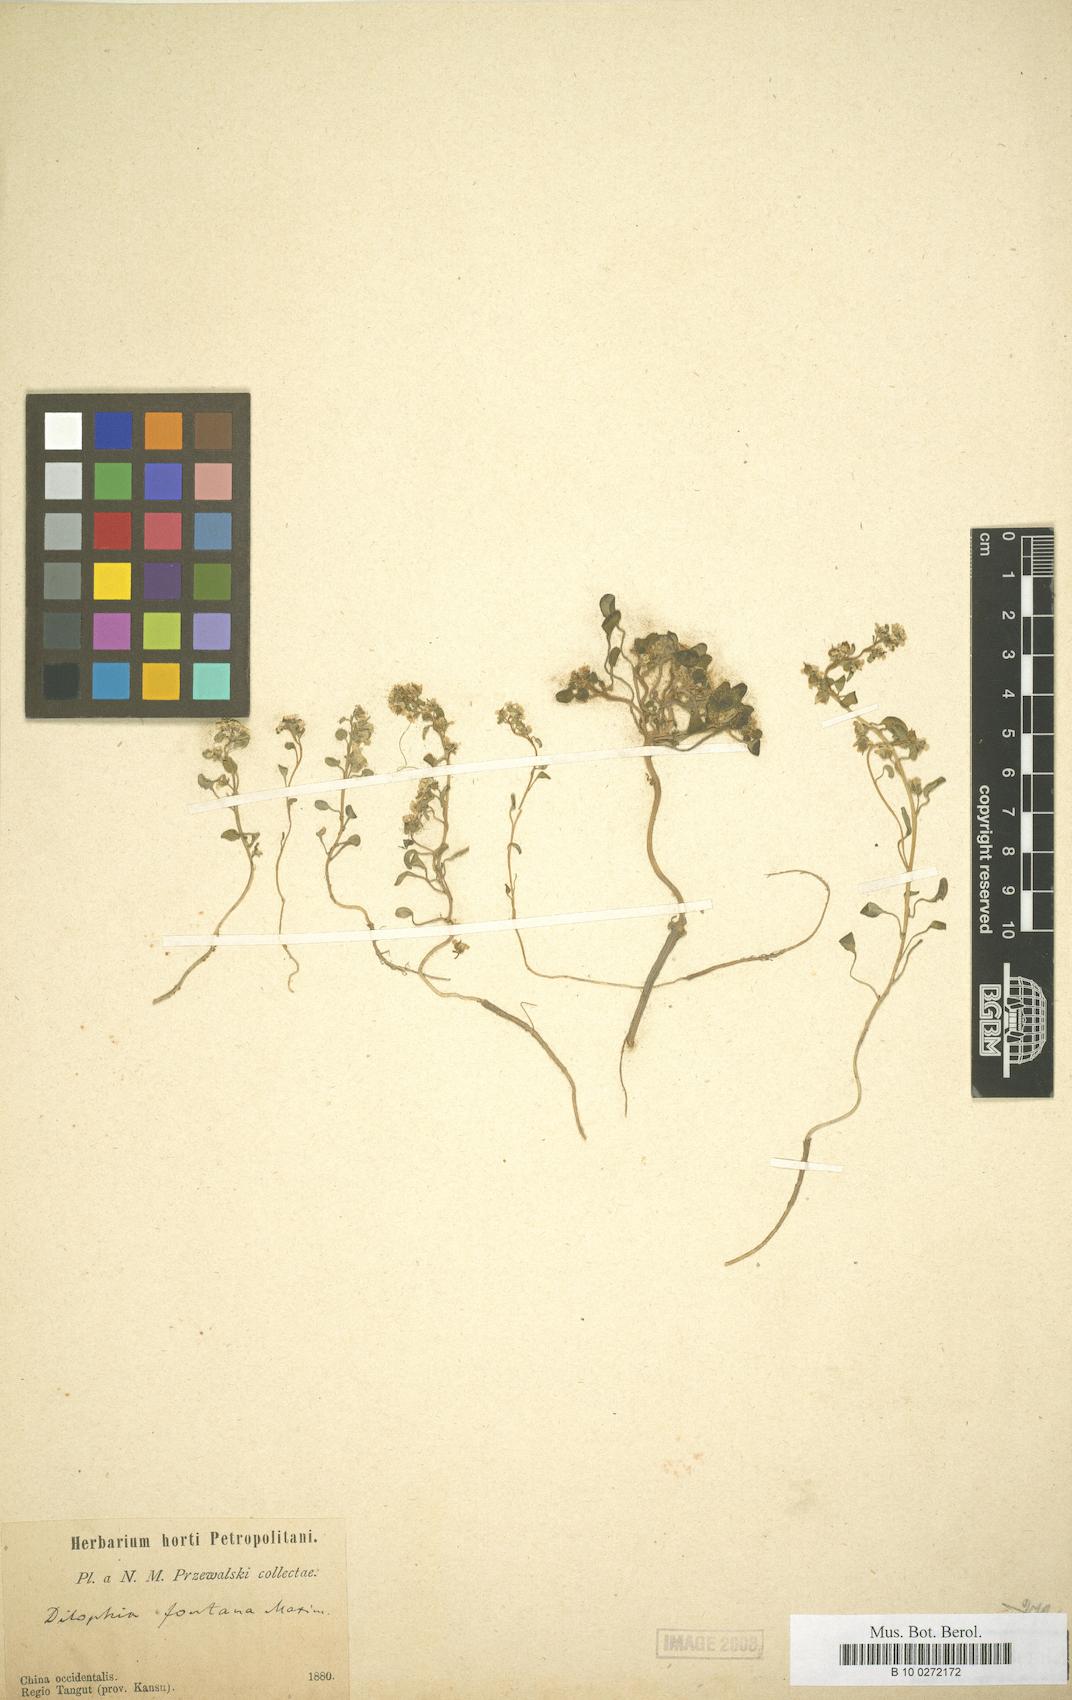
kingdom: Plantae
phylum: Tracheophyta
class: Magnoliopsida
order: Brassicales
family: Brassicaceae
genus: Eutrema
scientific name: Eutrema fontanum
